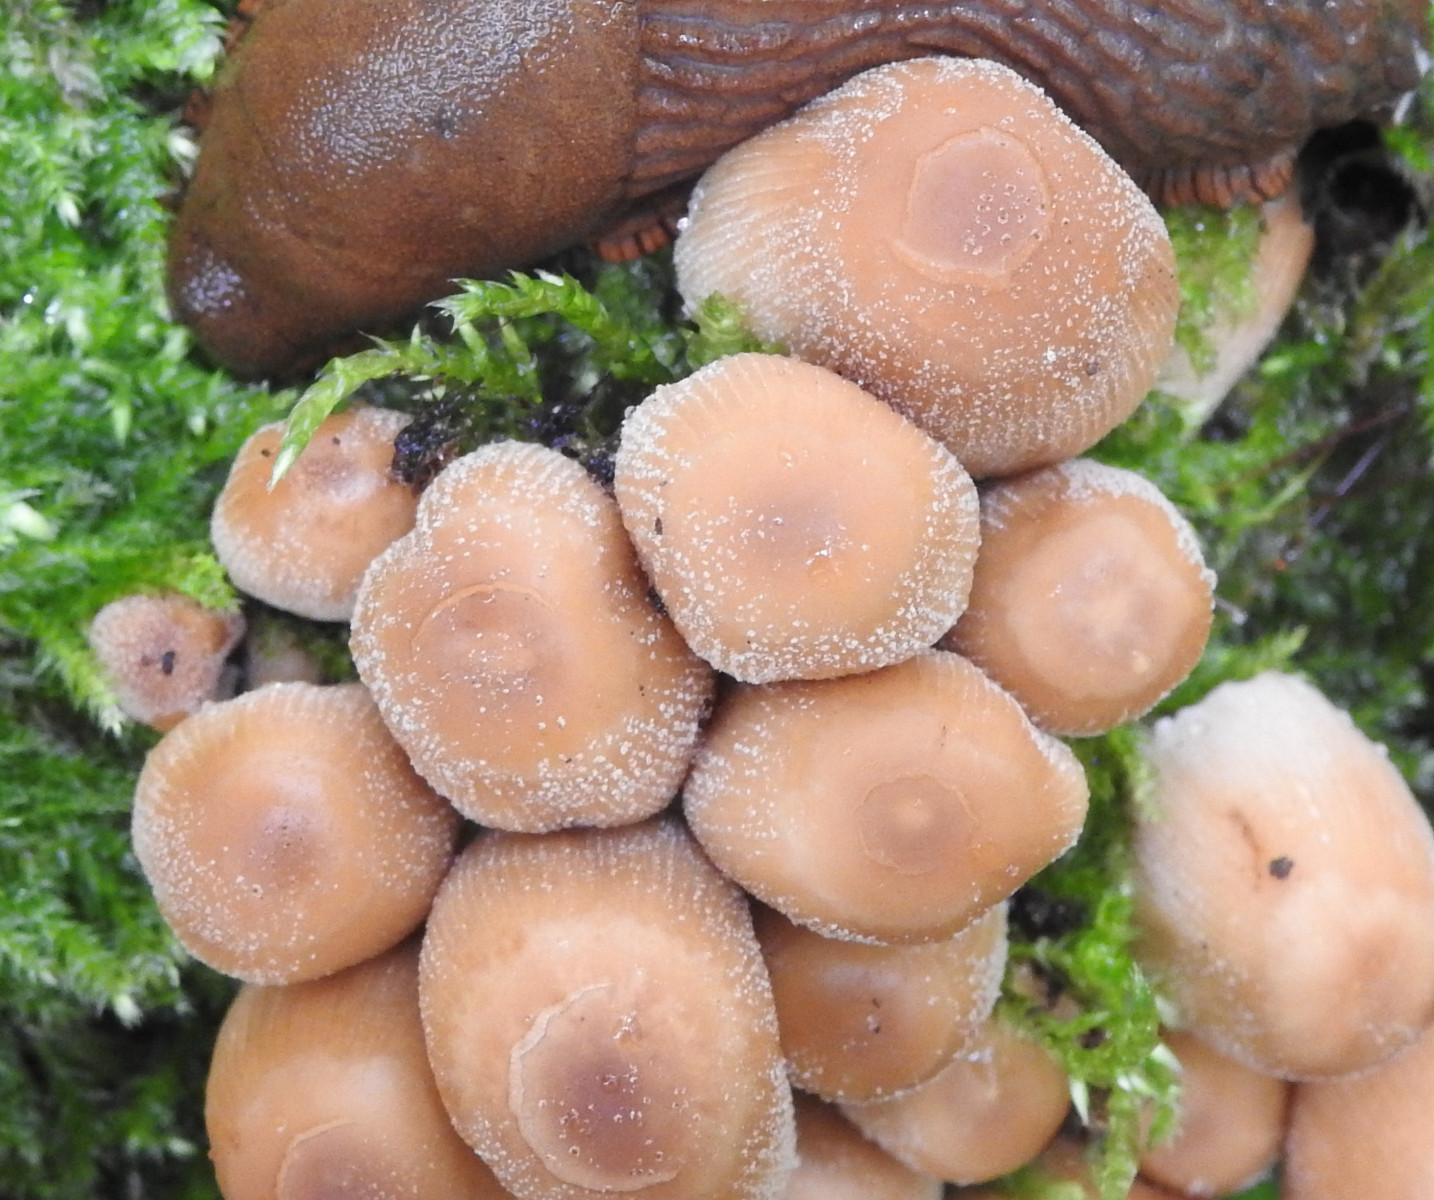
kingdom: Fungi
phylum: Basidiomycota
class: Agaricomycetes
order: Agaricales
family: Psathyrellaceae
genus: Coprinellus
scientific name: Coprinellus micaceus
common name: glimmer-blækhat
